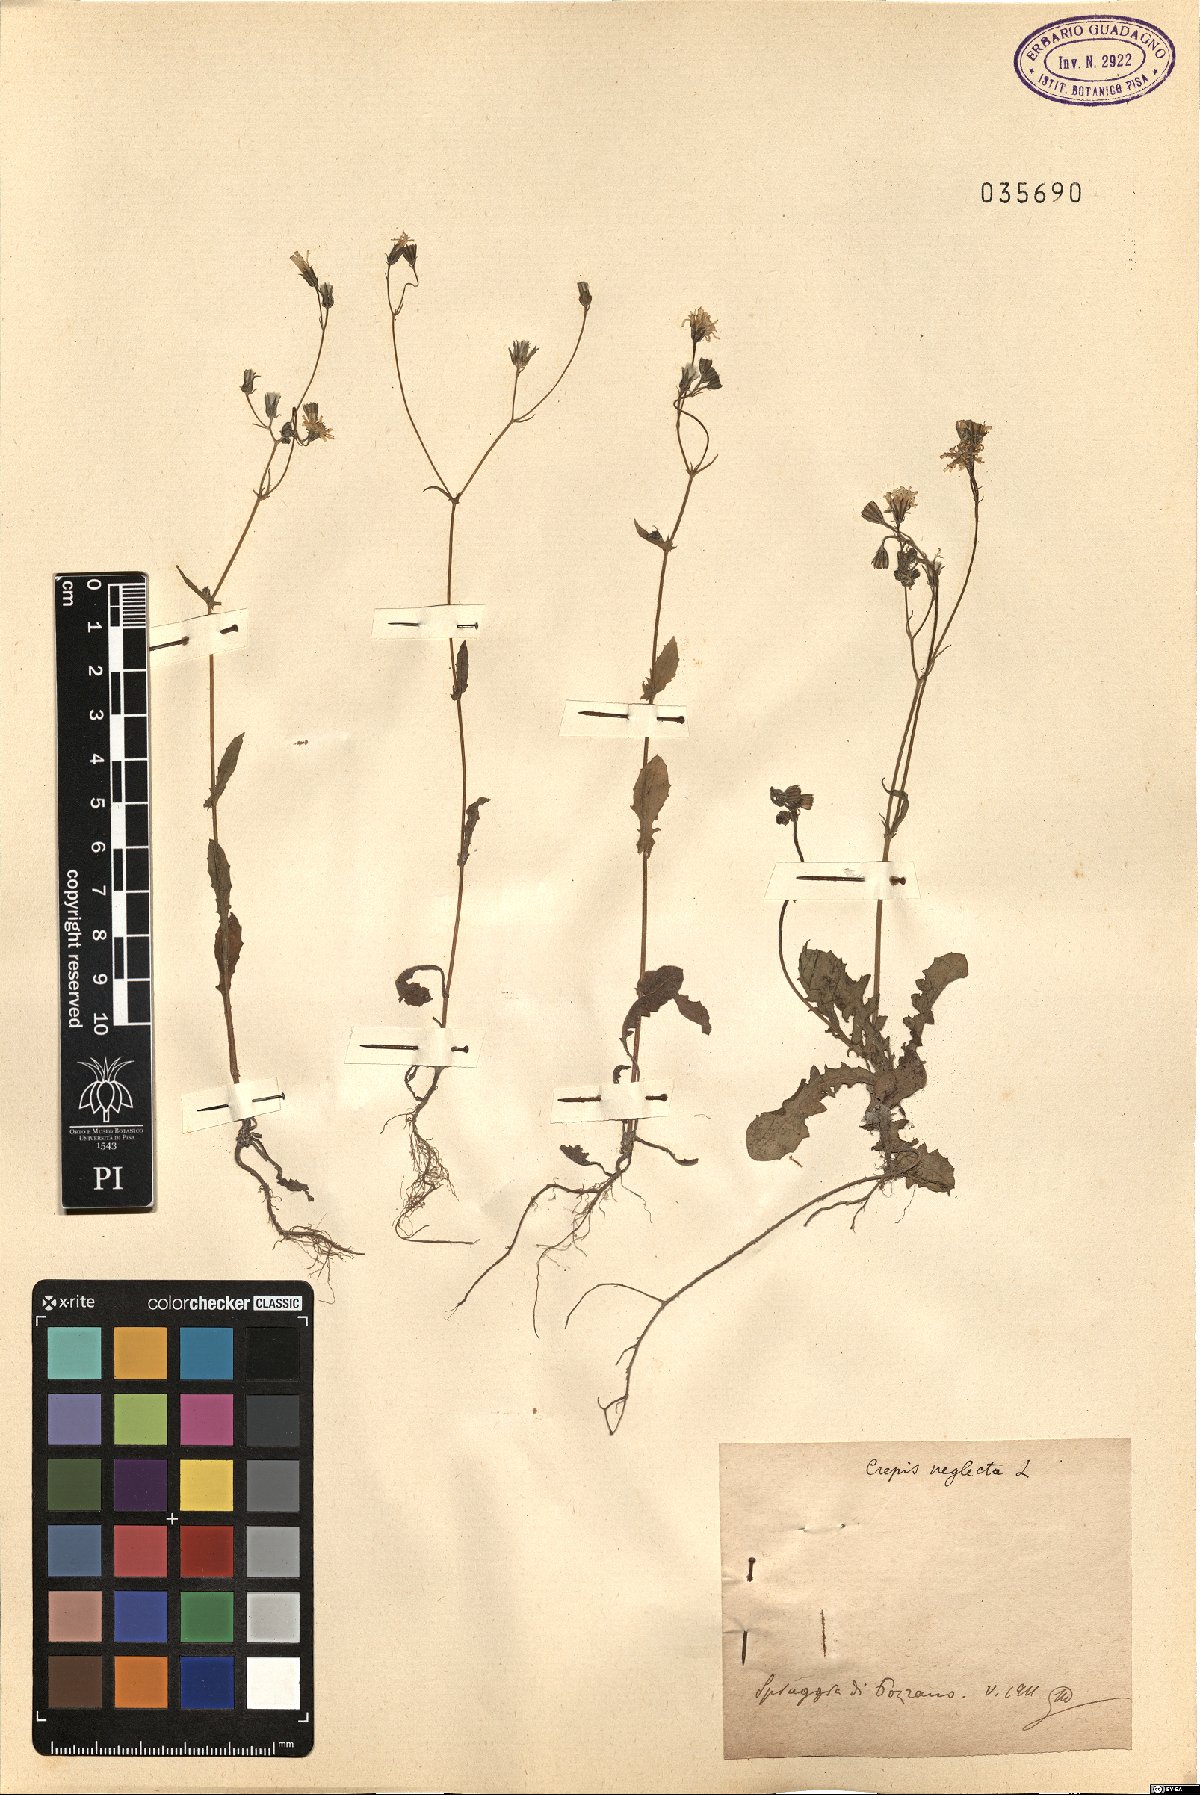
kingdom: Plantae
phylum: Tracheophyta
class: Magnoliopsida
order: Asterales
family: Asteraceae
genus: Crepis
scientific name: Crepis neglecta
